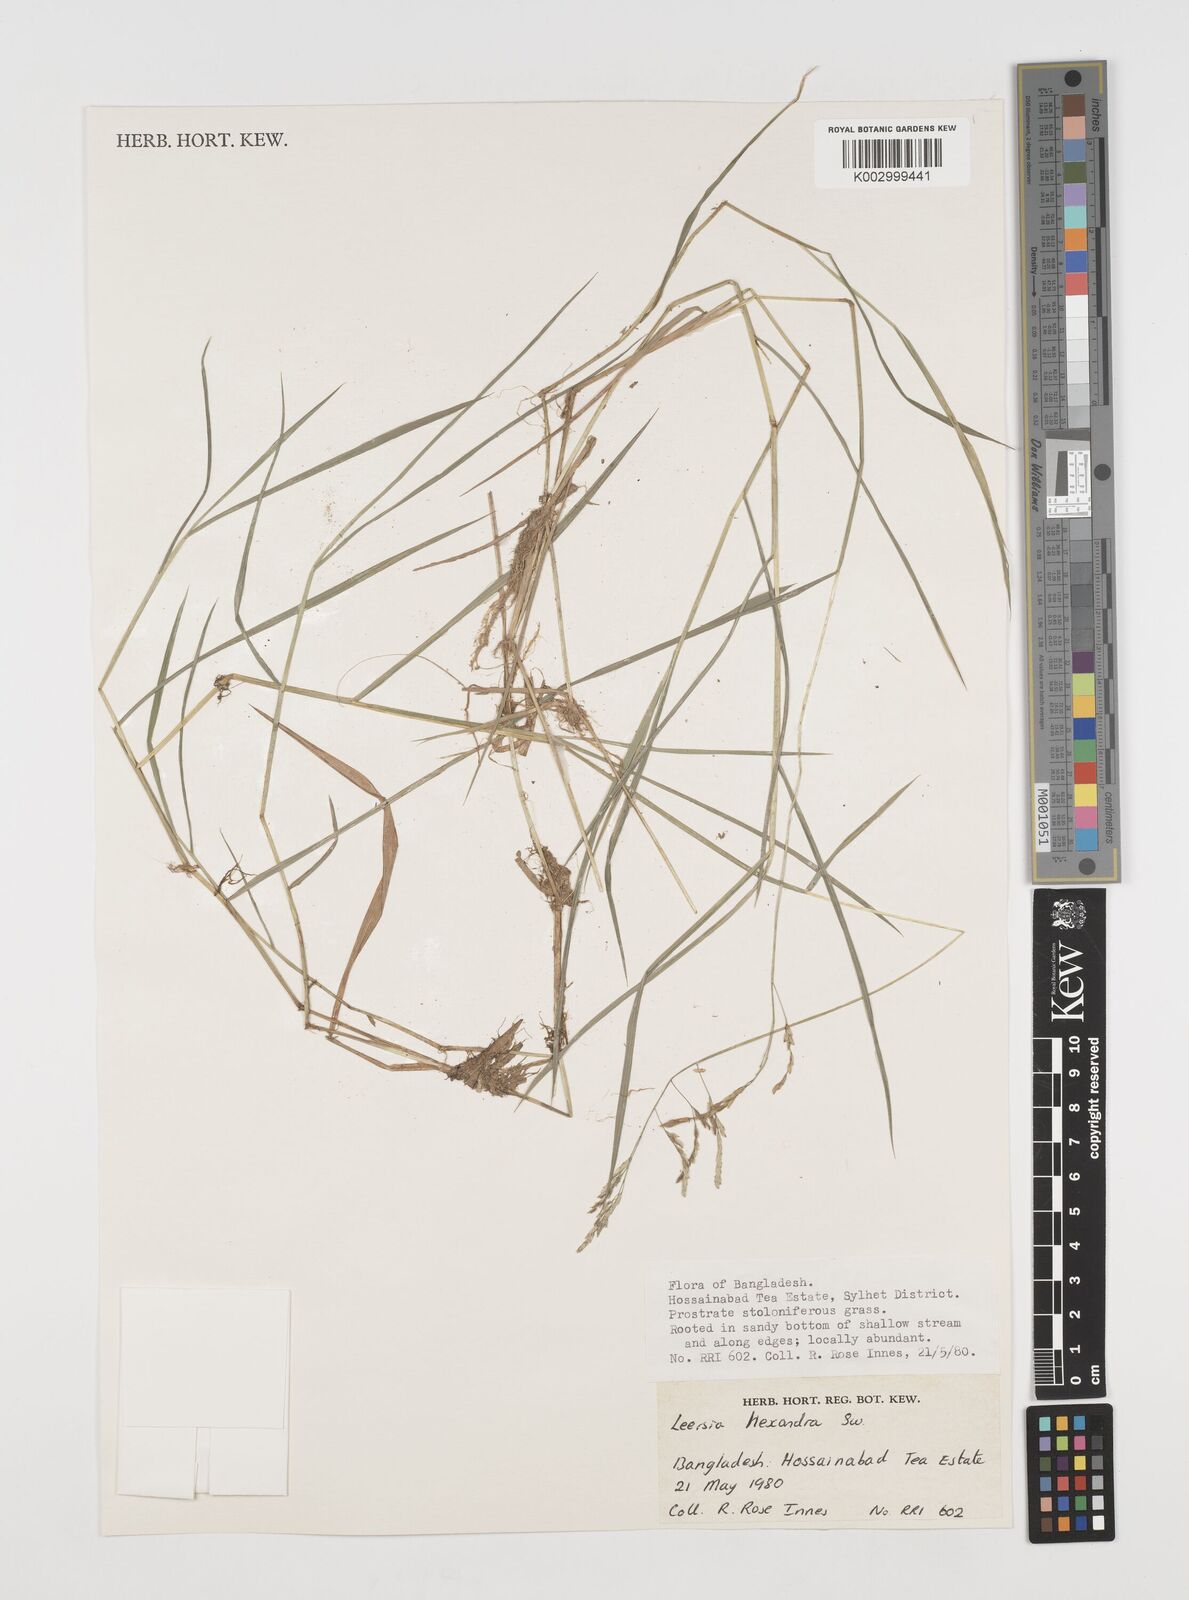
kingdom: Plantae
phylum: Tracheophyta
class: Liliopsida
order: Poales
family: Poaceae
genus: Leersia
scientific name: Leersia hexandra
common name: Southern cut grass
